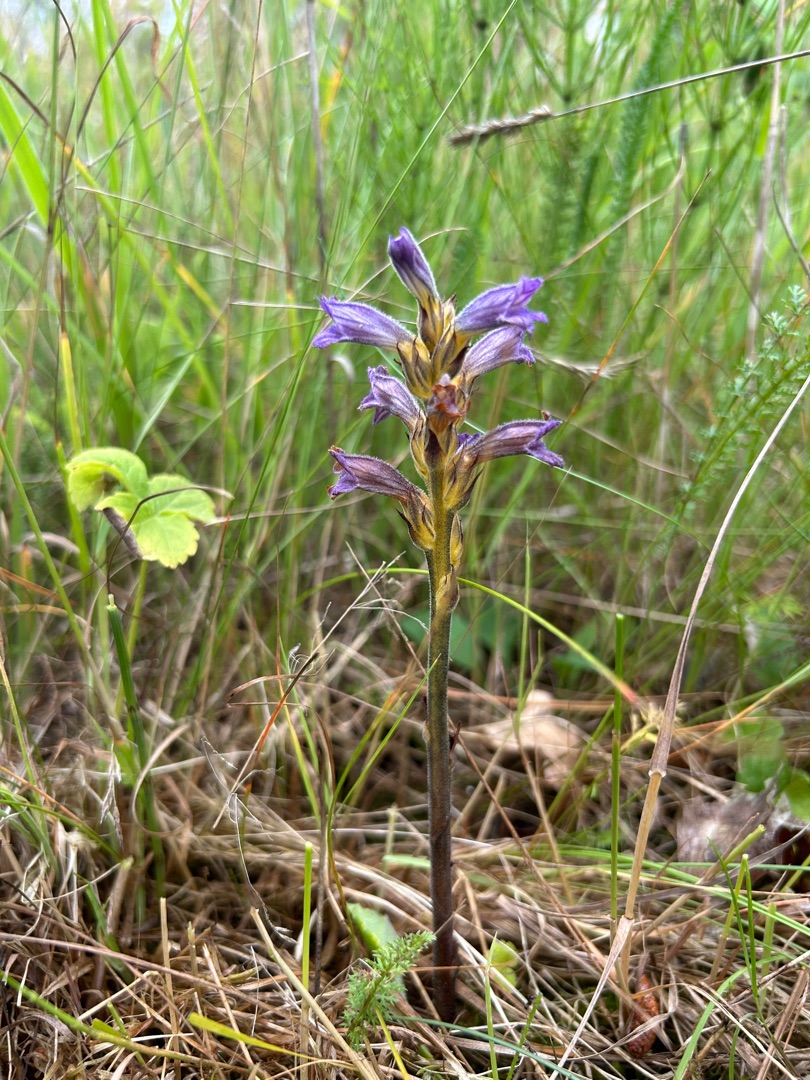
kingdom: Plantae
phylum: Tracheophyta
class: Magnoliopsida
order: Lamiales
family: Orobanchaceae
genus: Phelipanche
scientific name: Phelipanche purpurea
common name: Røllike-gyvelkvæler
